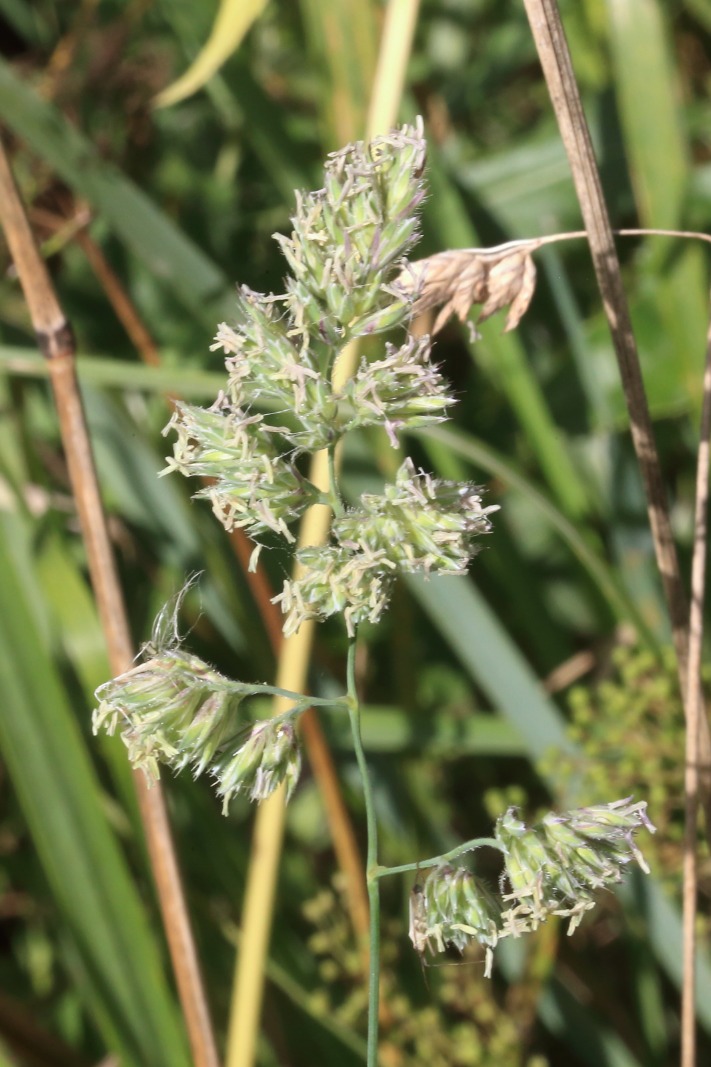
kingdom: Plantae
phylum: Tracheophyta
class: Liliopsida
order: Poales
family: Poaceae
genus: Dactylis
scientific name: Dactylis glomerata
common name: Almindelig hundegræs
